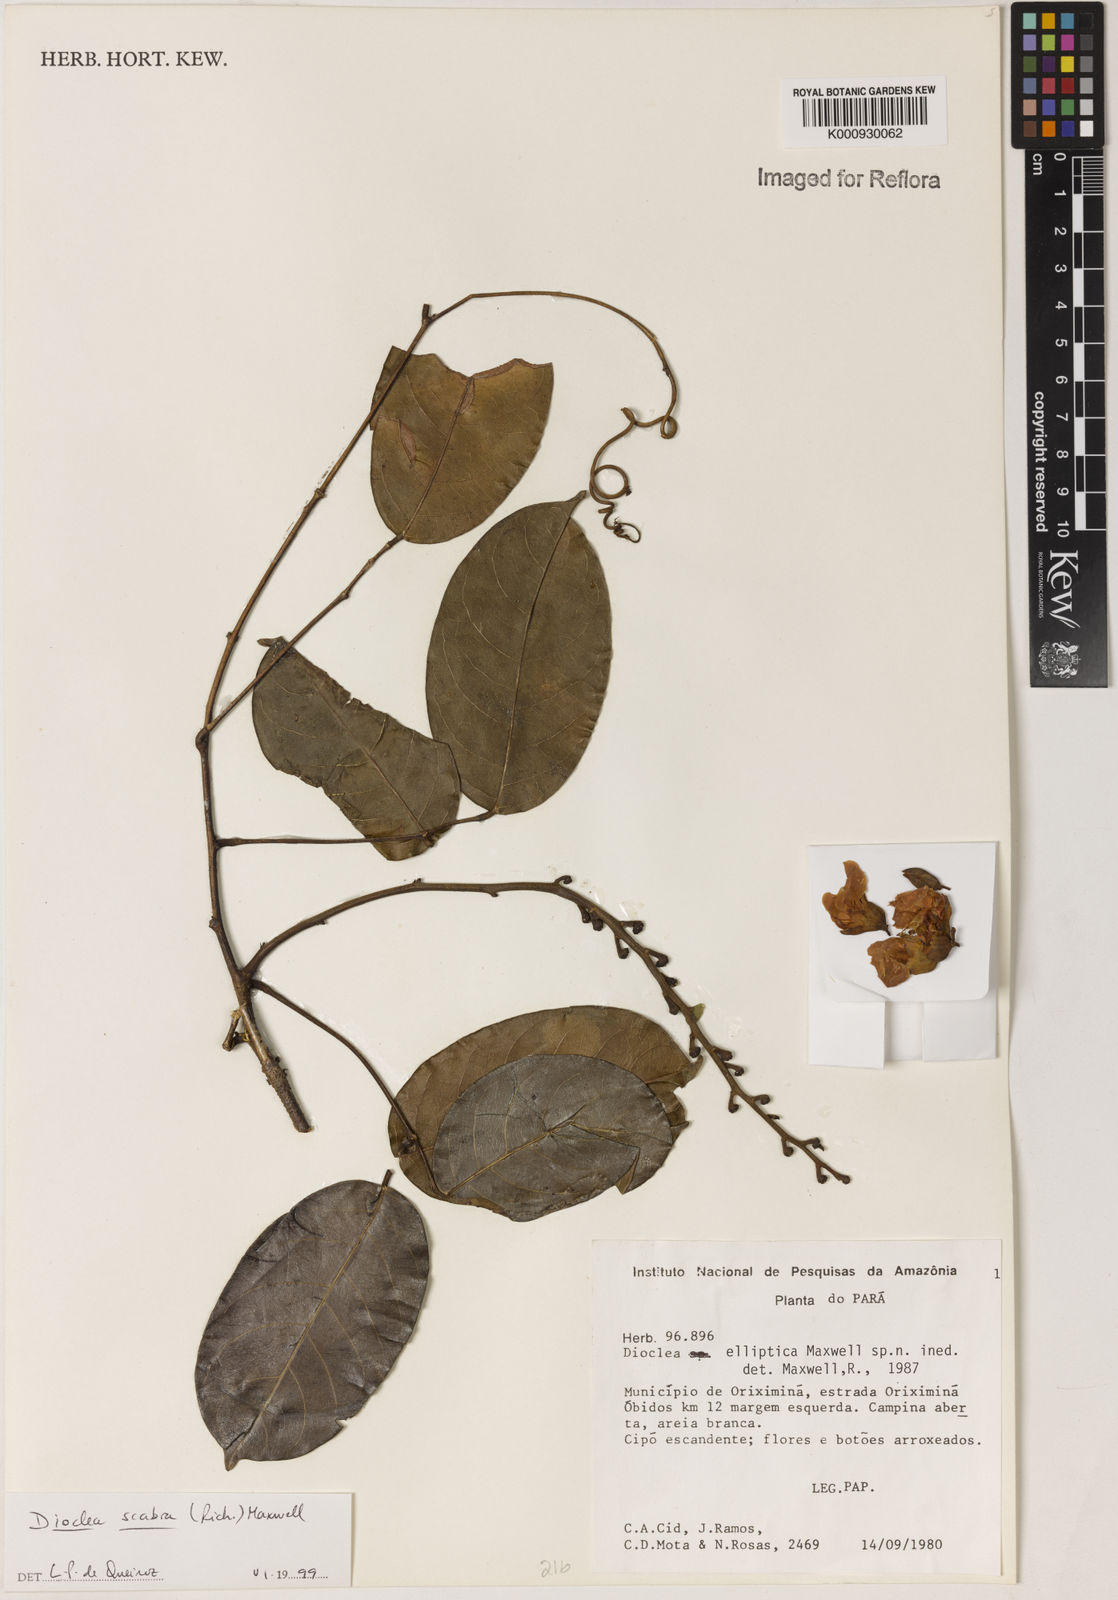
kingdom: Plantae
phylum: Tracheophyta
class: Magnoliopsida
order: Fabales
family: Fabaceae
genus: Macropsychanthus
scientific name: Macropsychanthus scaber
